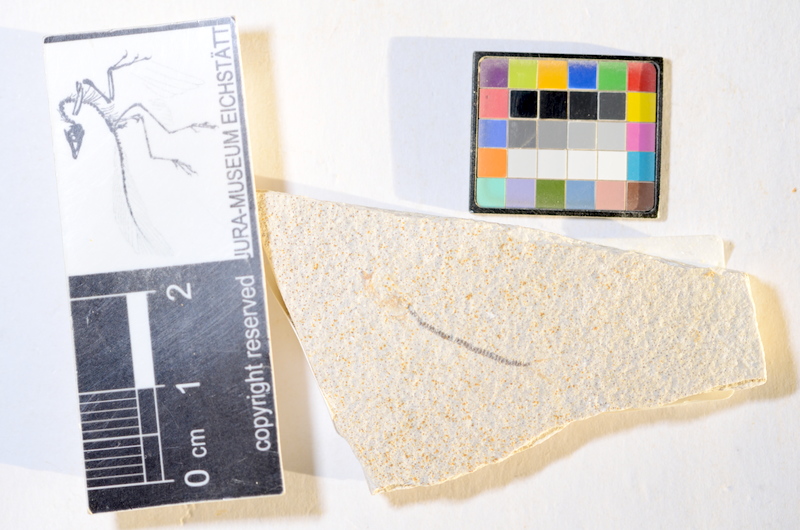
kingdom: Animalia
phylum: Chordata
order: Salmoniformes
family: Orthogonikleithridae
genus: Orthogonikleithrus
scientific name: Orthogonikleithrus hoelli
